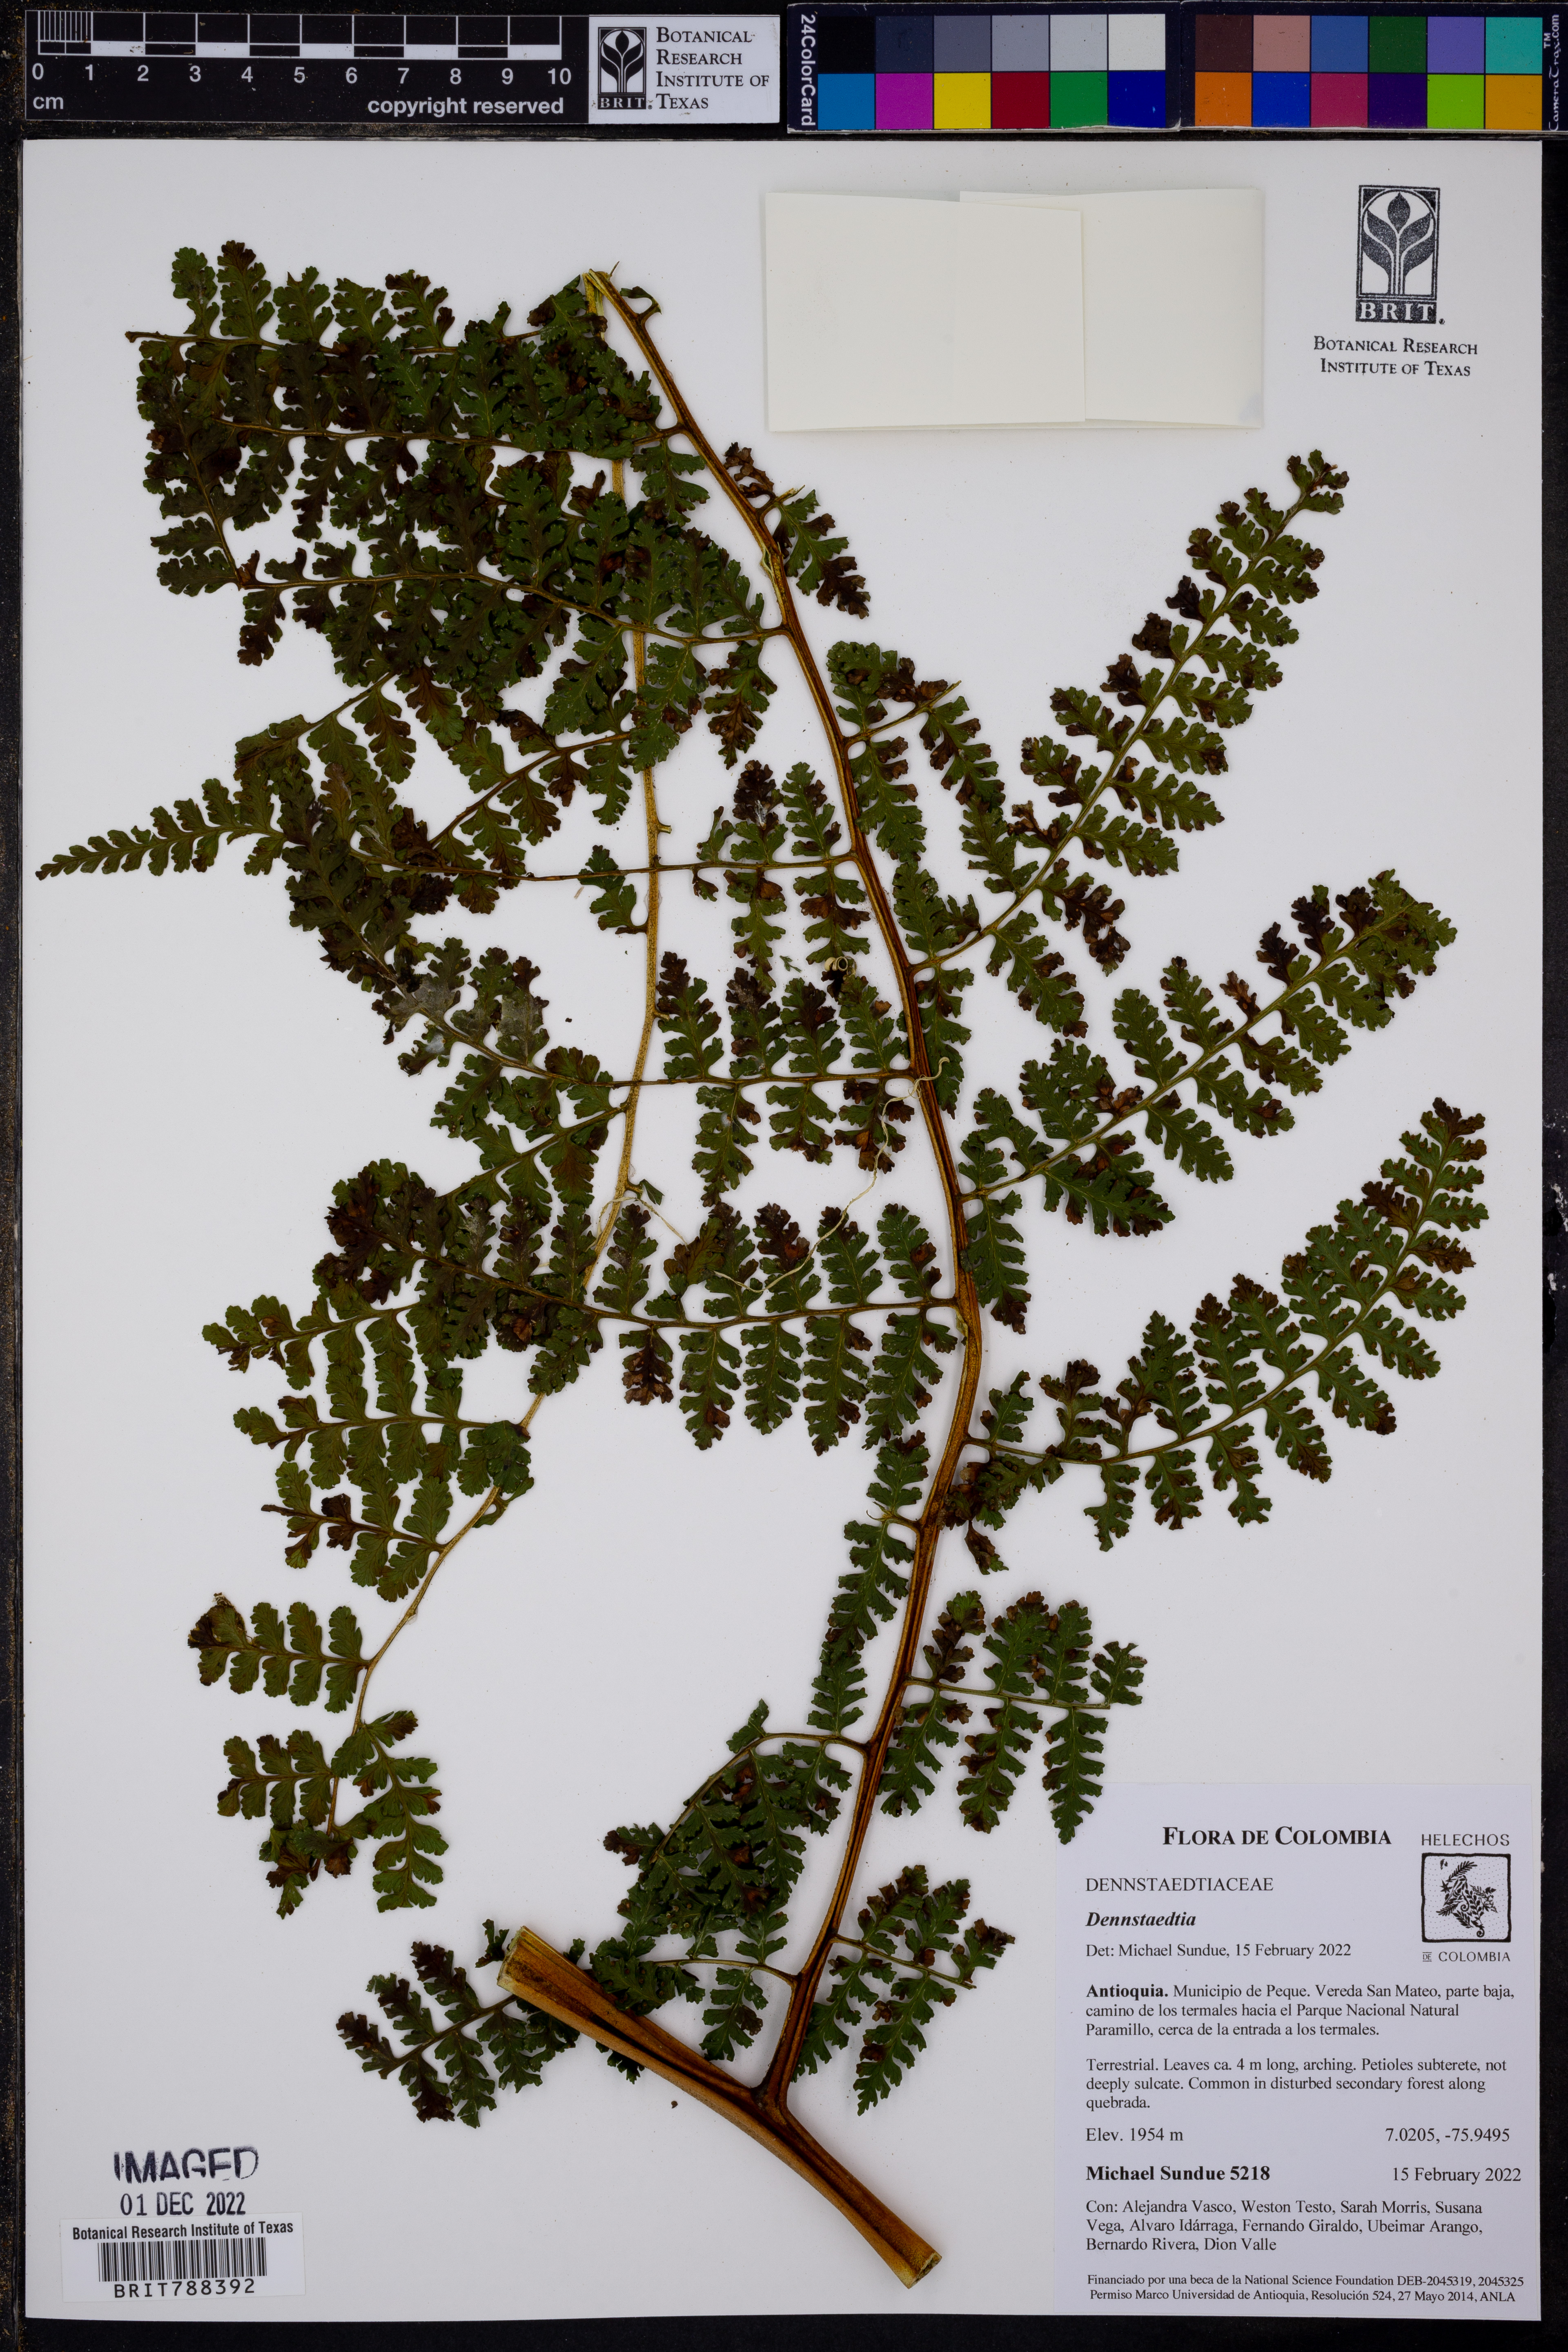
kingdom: Plantae
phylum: Tracheophyta
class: Polypodiopsida
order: Polypodiales
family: Dennstaedtiaceae
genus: Mucura
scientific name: Mucura globulifera
